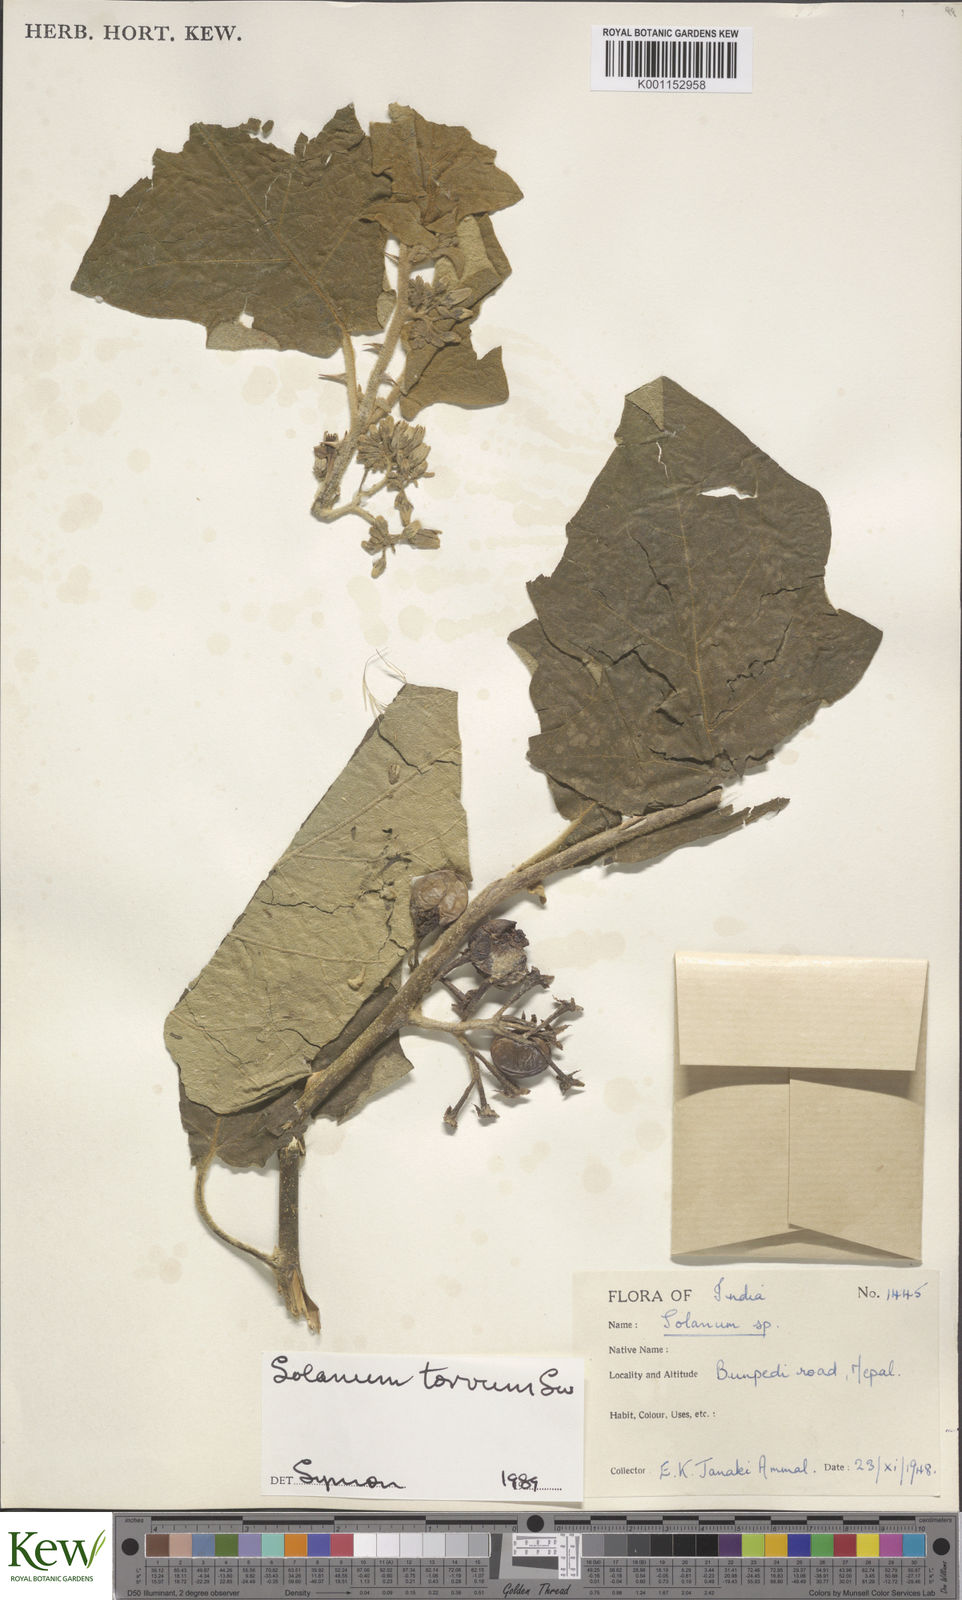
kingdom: Plantae
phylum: Tracheophyta
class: Magnoliopsida
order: Solanales
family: Solanaceae
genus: Solanum
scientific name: Solanum torvum
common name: Turkey berry
